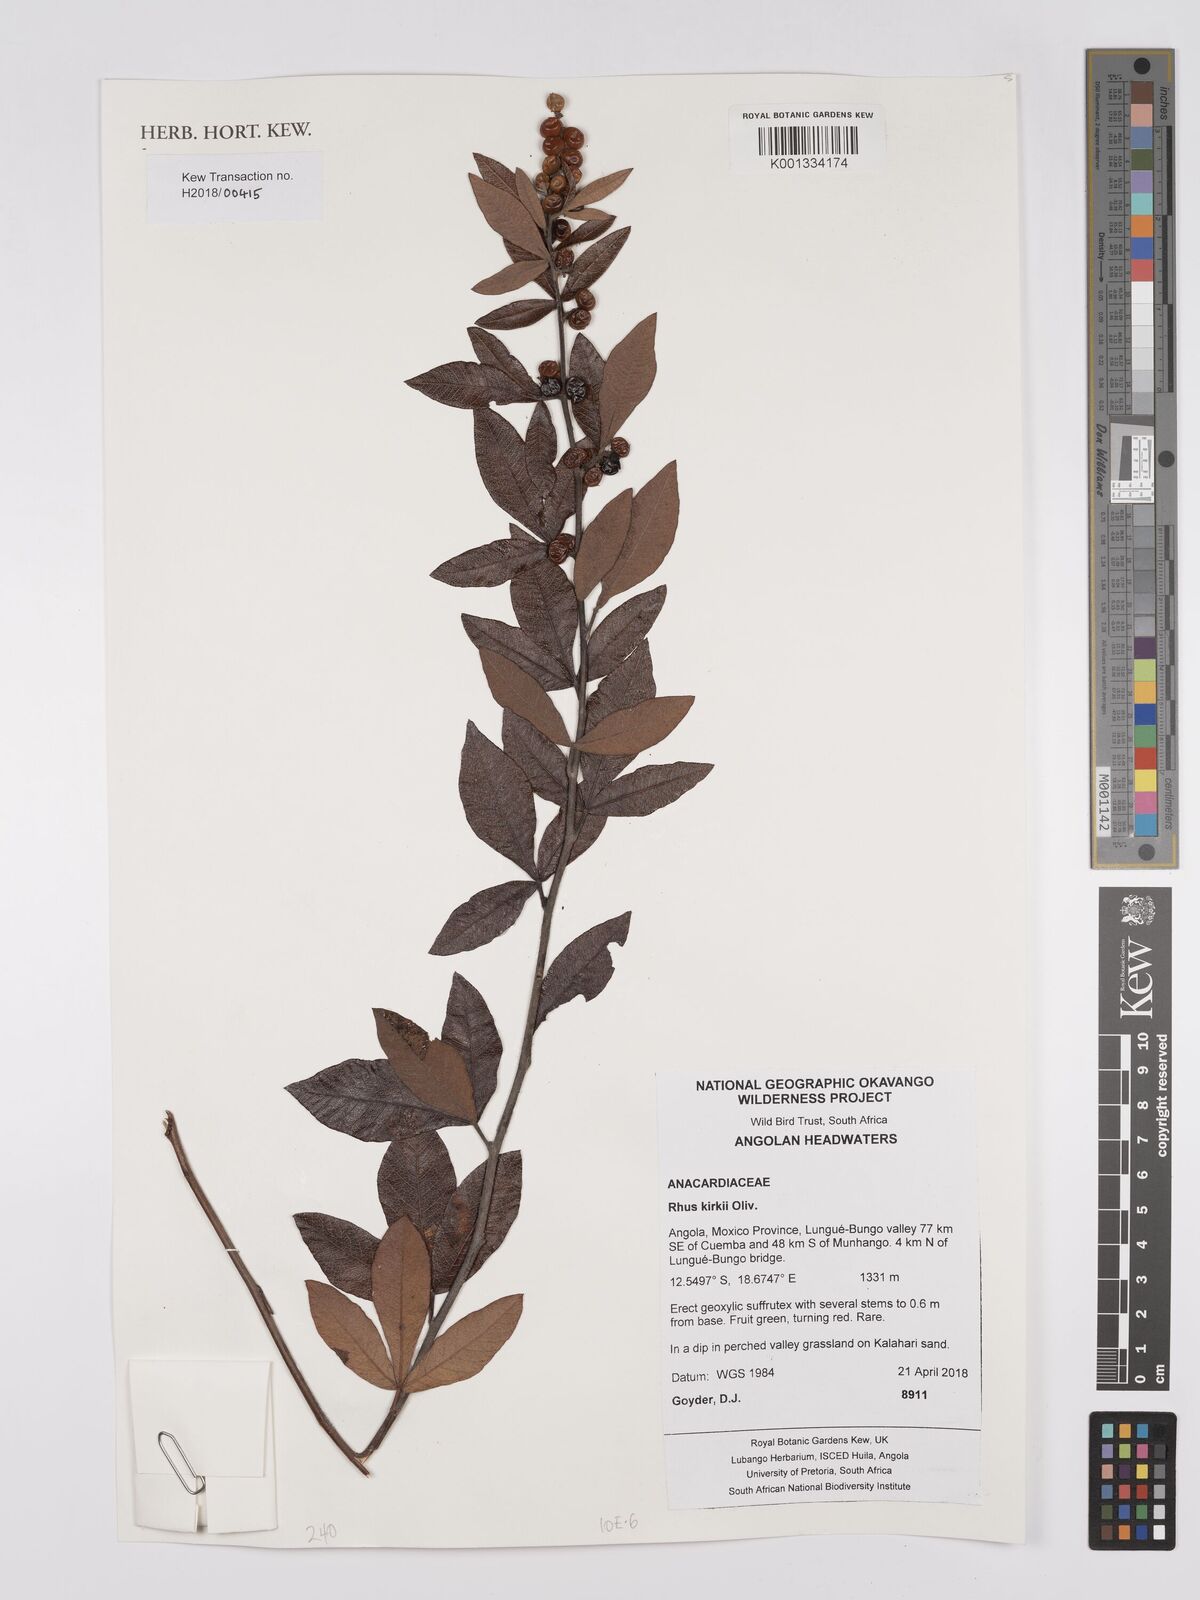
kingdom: Plantae
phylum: Tracheophyta
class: Magnoliopsida
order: Sapindales
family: Anacardiaceae
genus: Searsia
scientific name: Searsia kirkii
